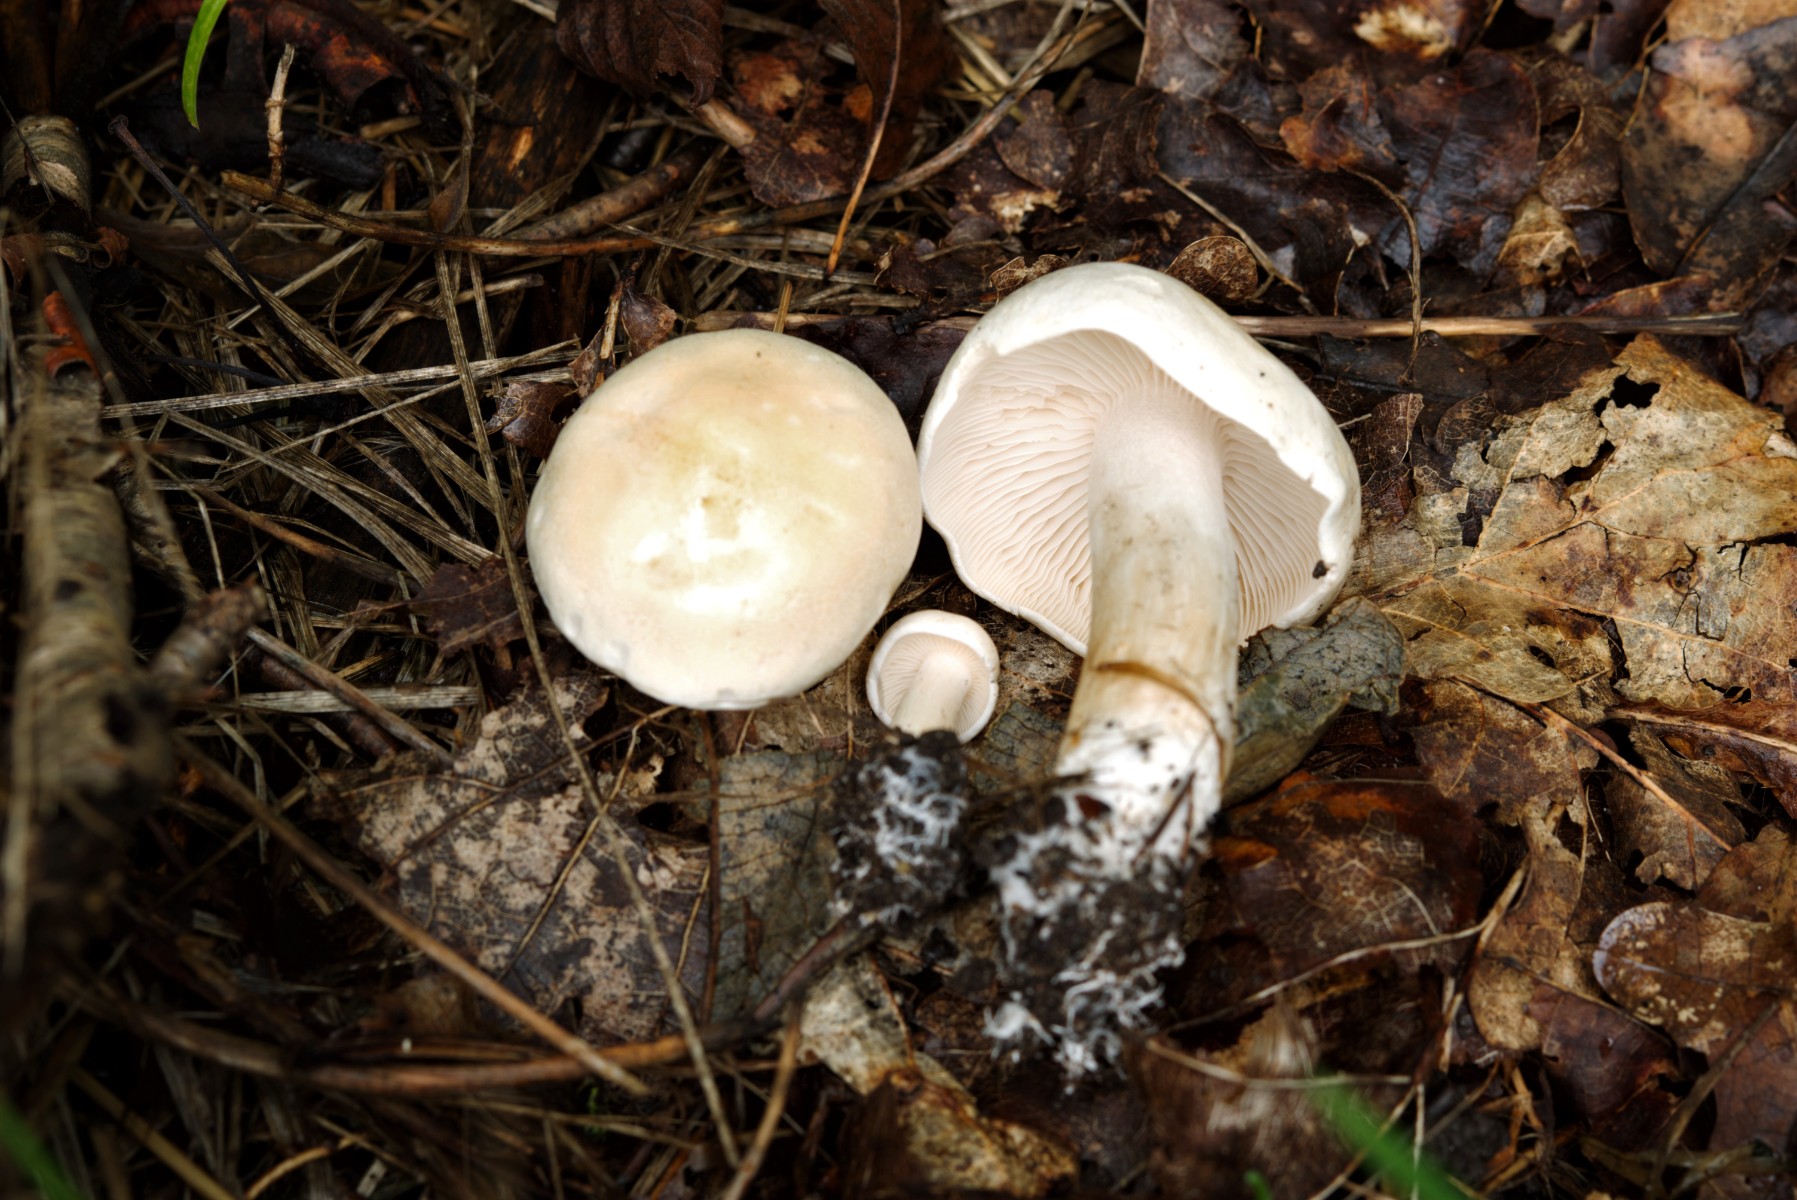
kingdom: Fungi
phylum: Basidiomycota
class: Agaricomycetes
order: Agaricales
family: Tricholomataceae
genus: Tricholoma
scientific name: Tricholoma album
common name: honning-ridderhat
